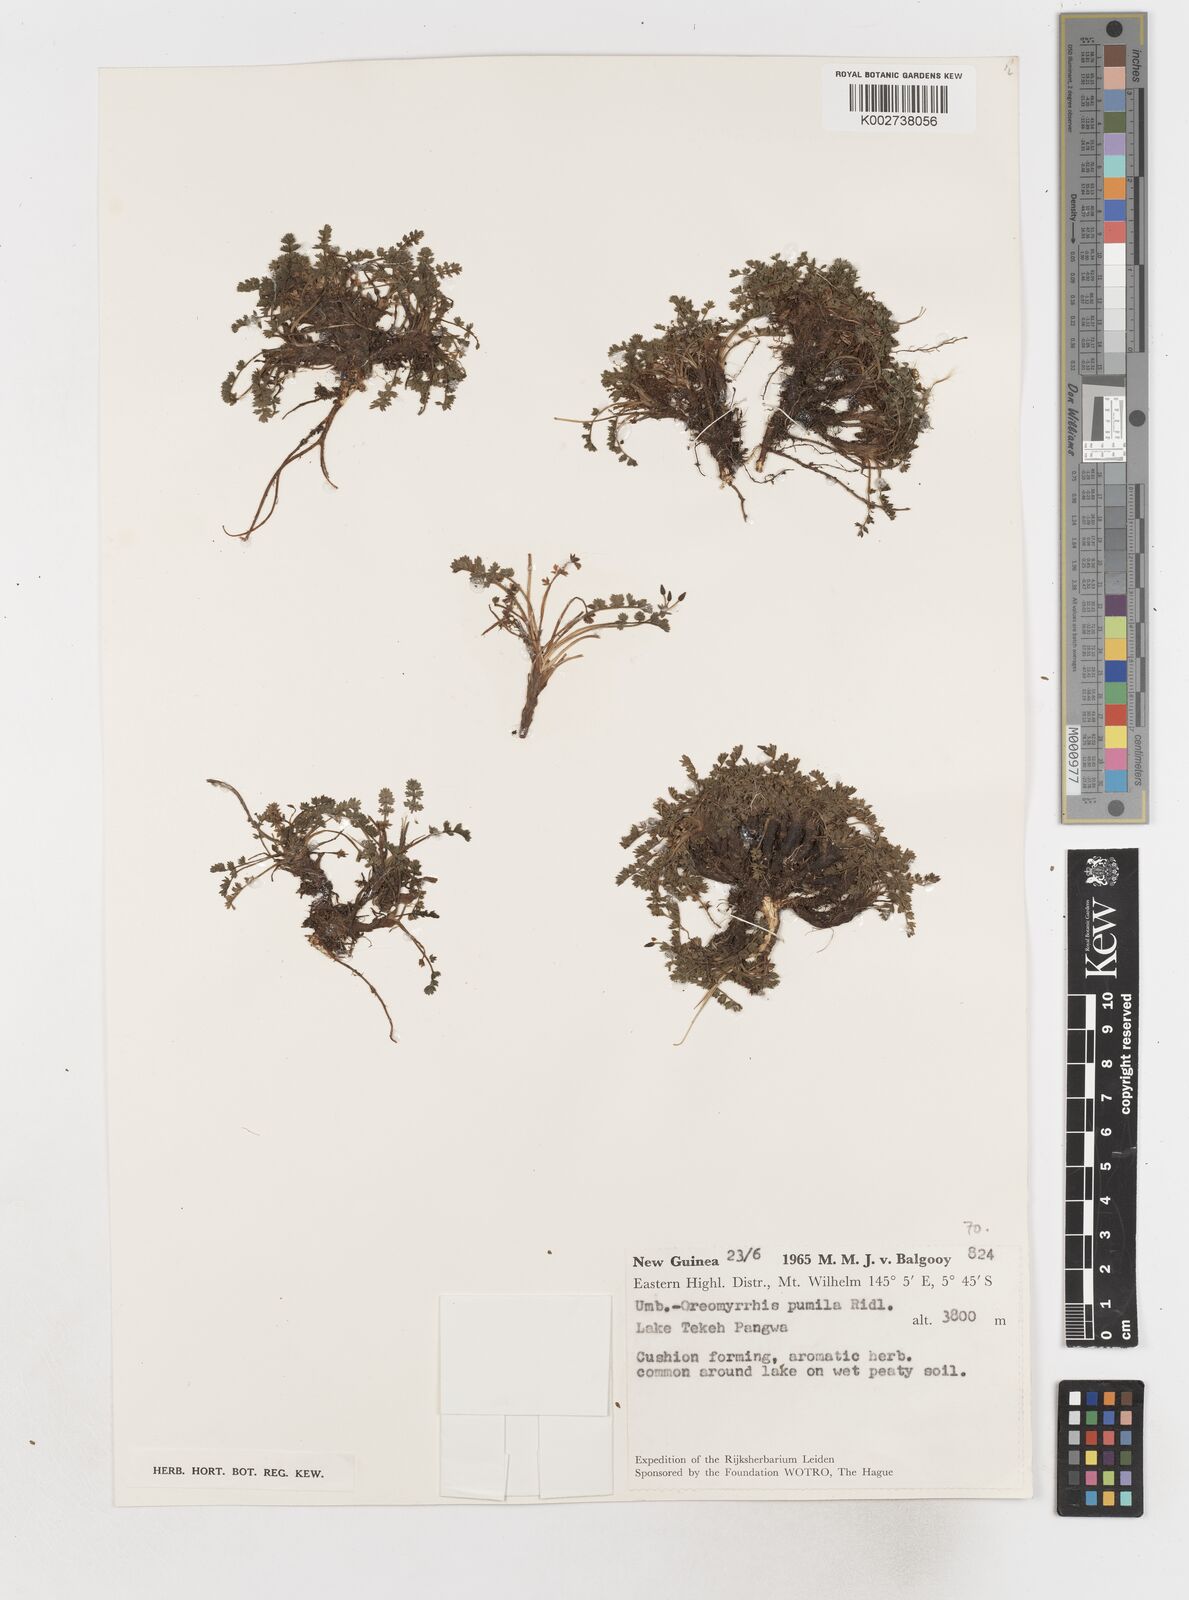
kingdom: Plantae
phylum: Tracheophyta
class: Magnoliopsida
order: Apiales
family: Apiaceae
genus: Chaerophyllum
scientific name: Chaerophyllum pumilum
